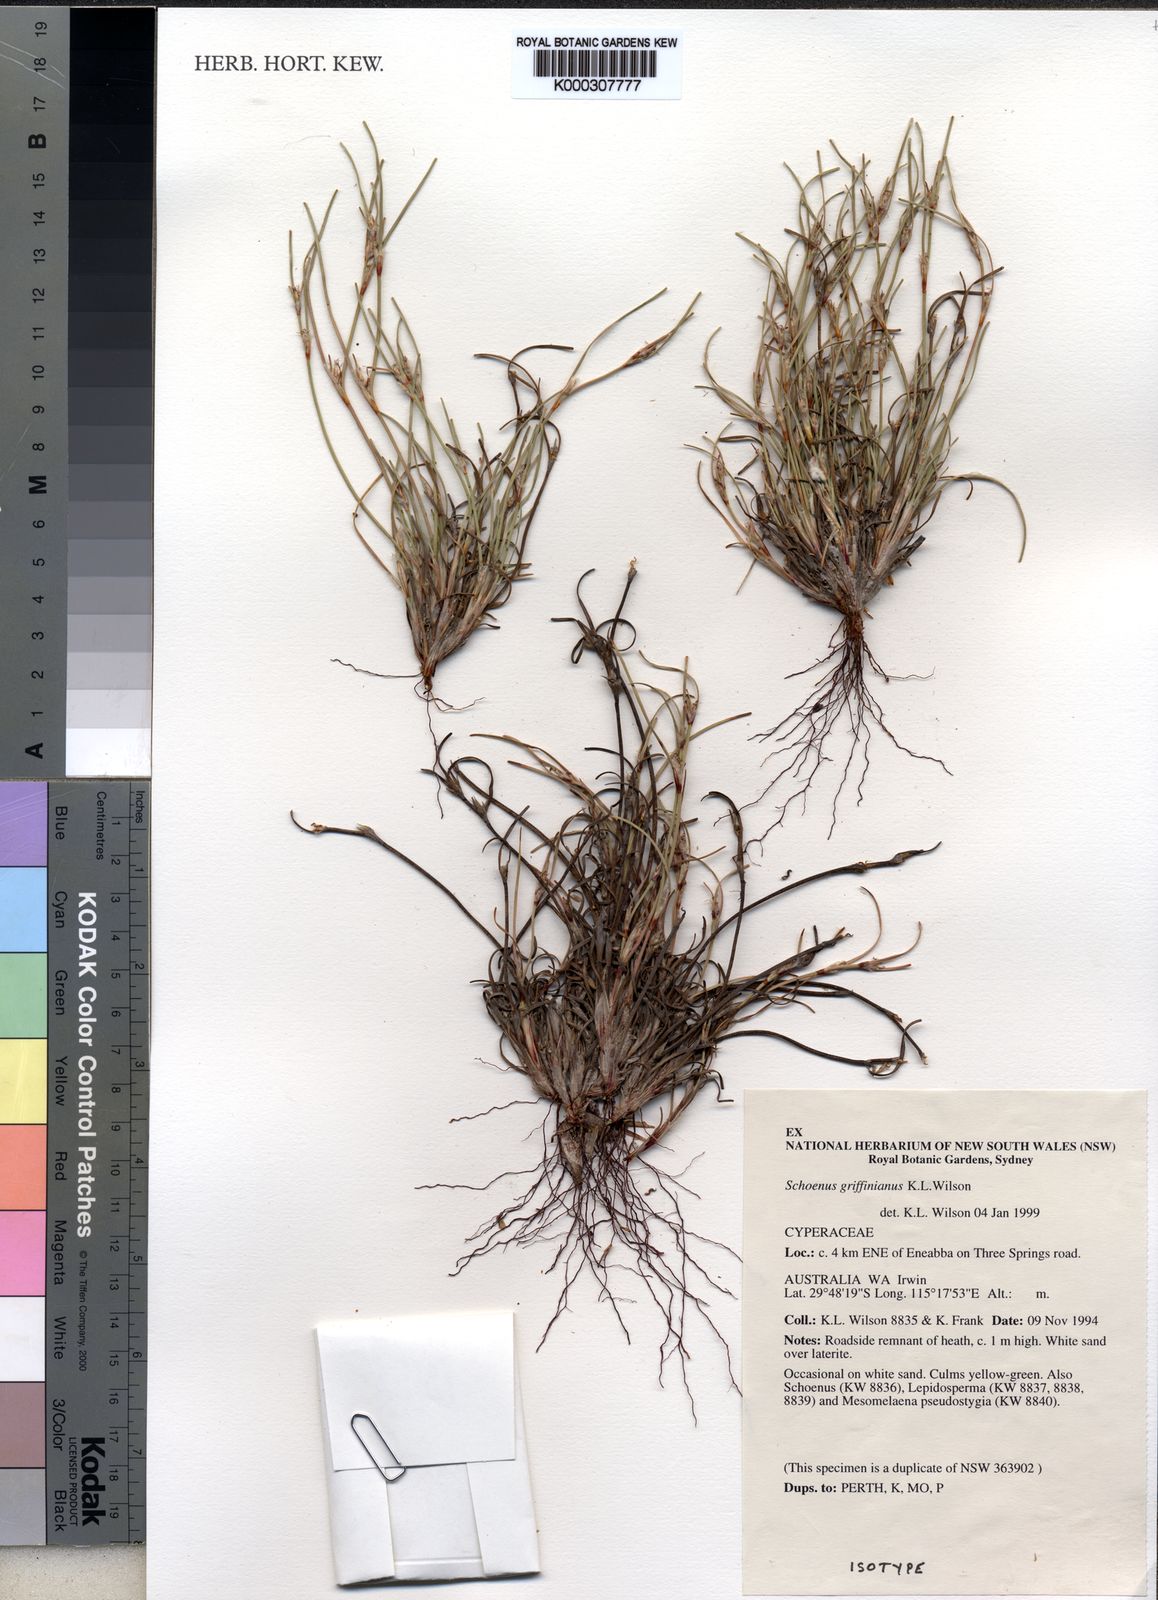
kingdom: Plantae
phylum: Tracheophyta
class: Liliopsida
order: Poales
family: Cyperaceae
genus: Schoenus
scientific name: Schoenus griffinianus
